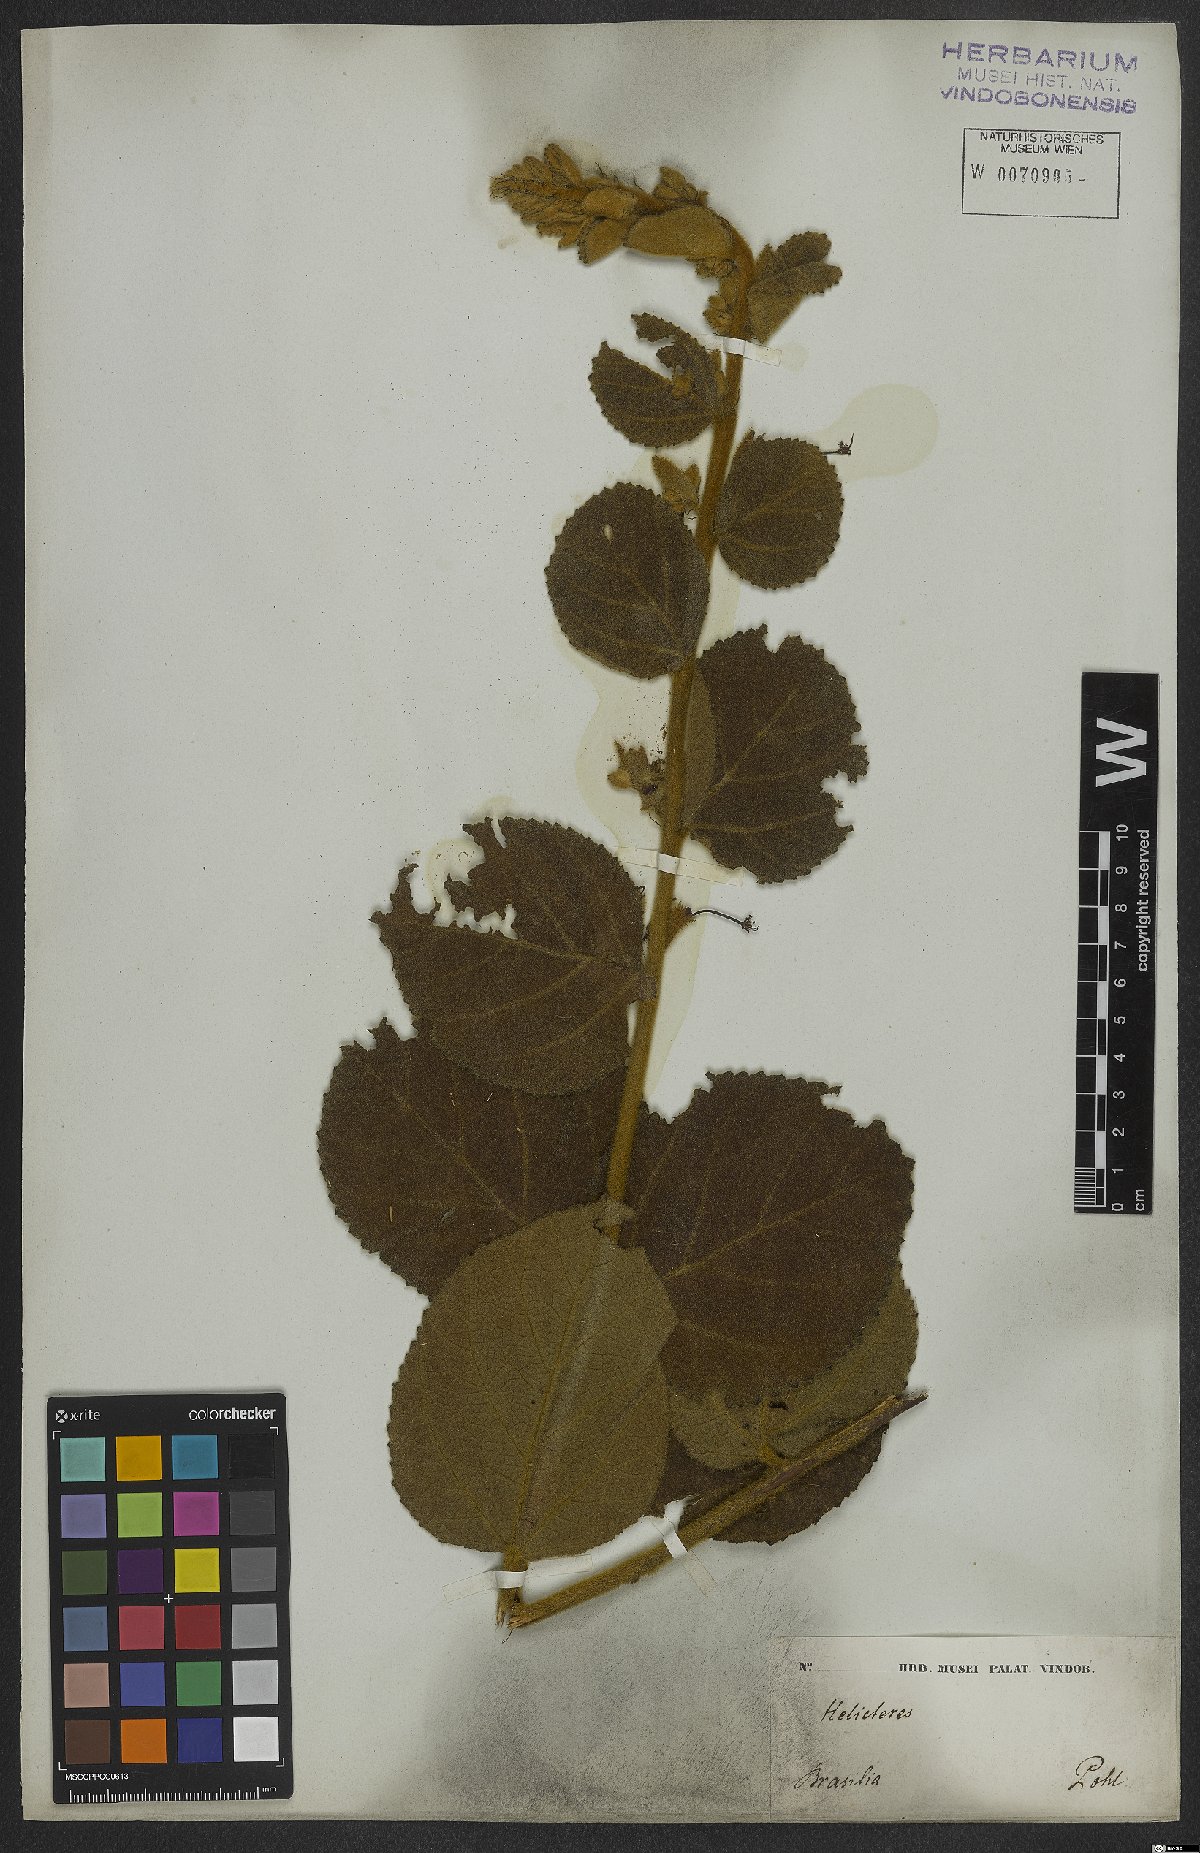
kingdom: Plantae
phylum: Tracheophyta
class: Magnoliopsida
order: Malvales
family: Malvaceae
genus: Helicteres
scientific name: Helicteres sacarolha
